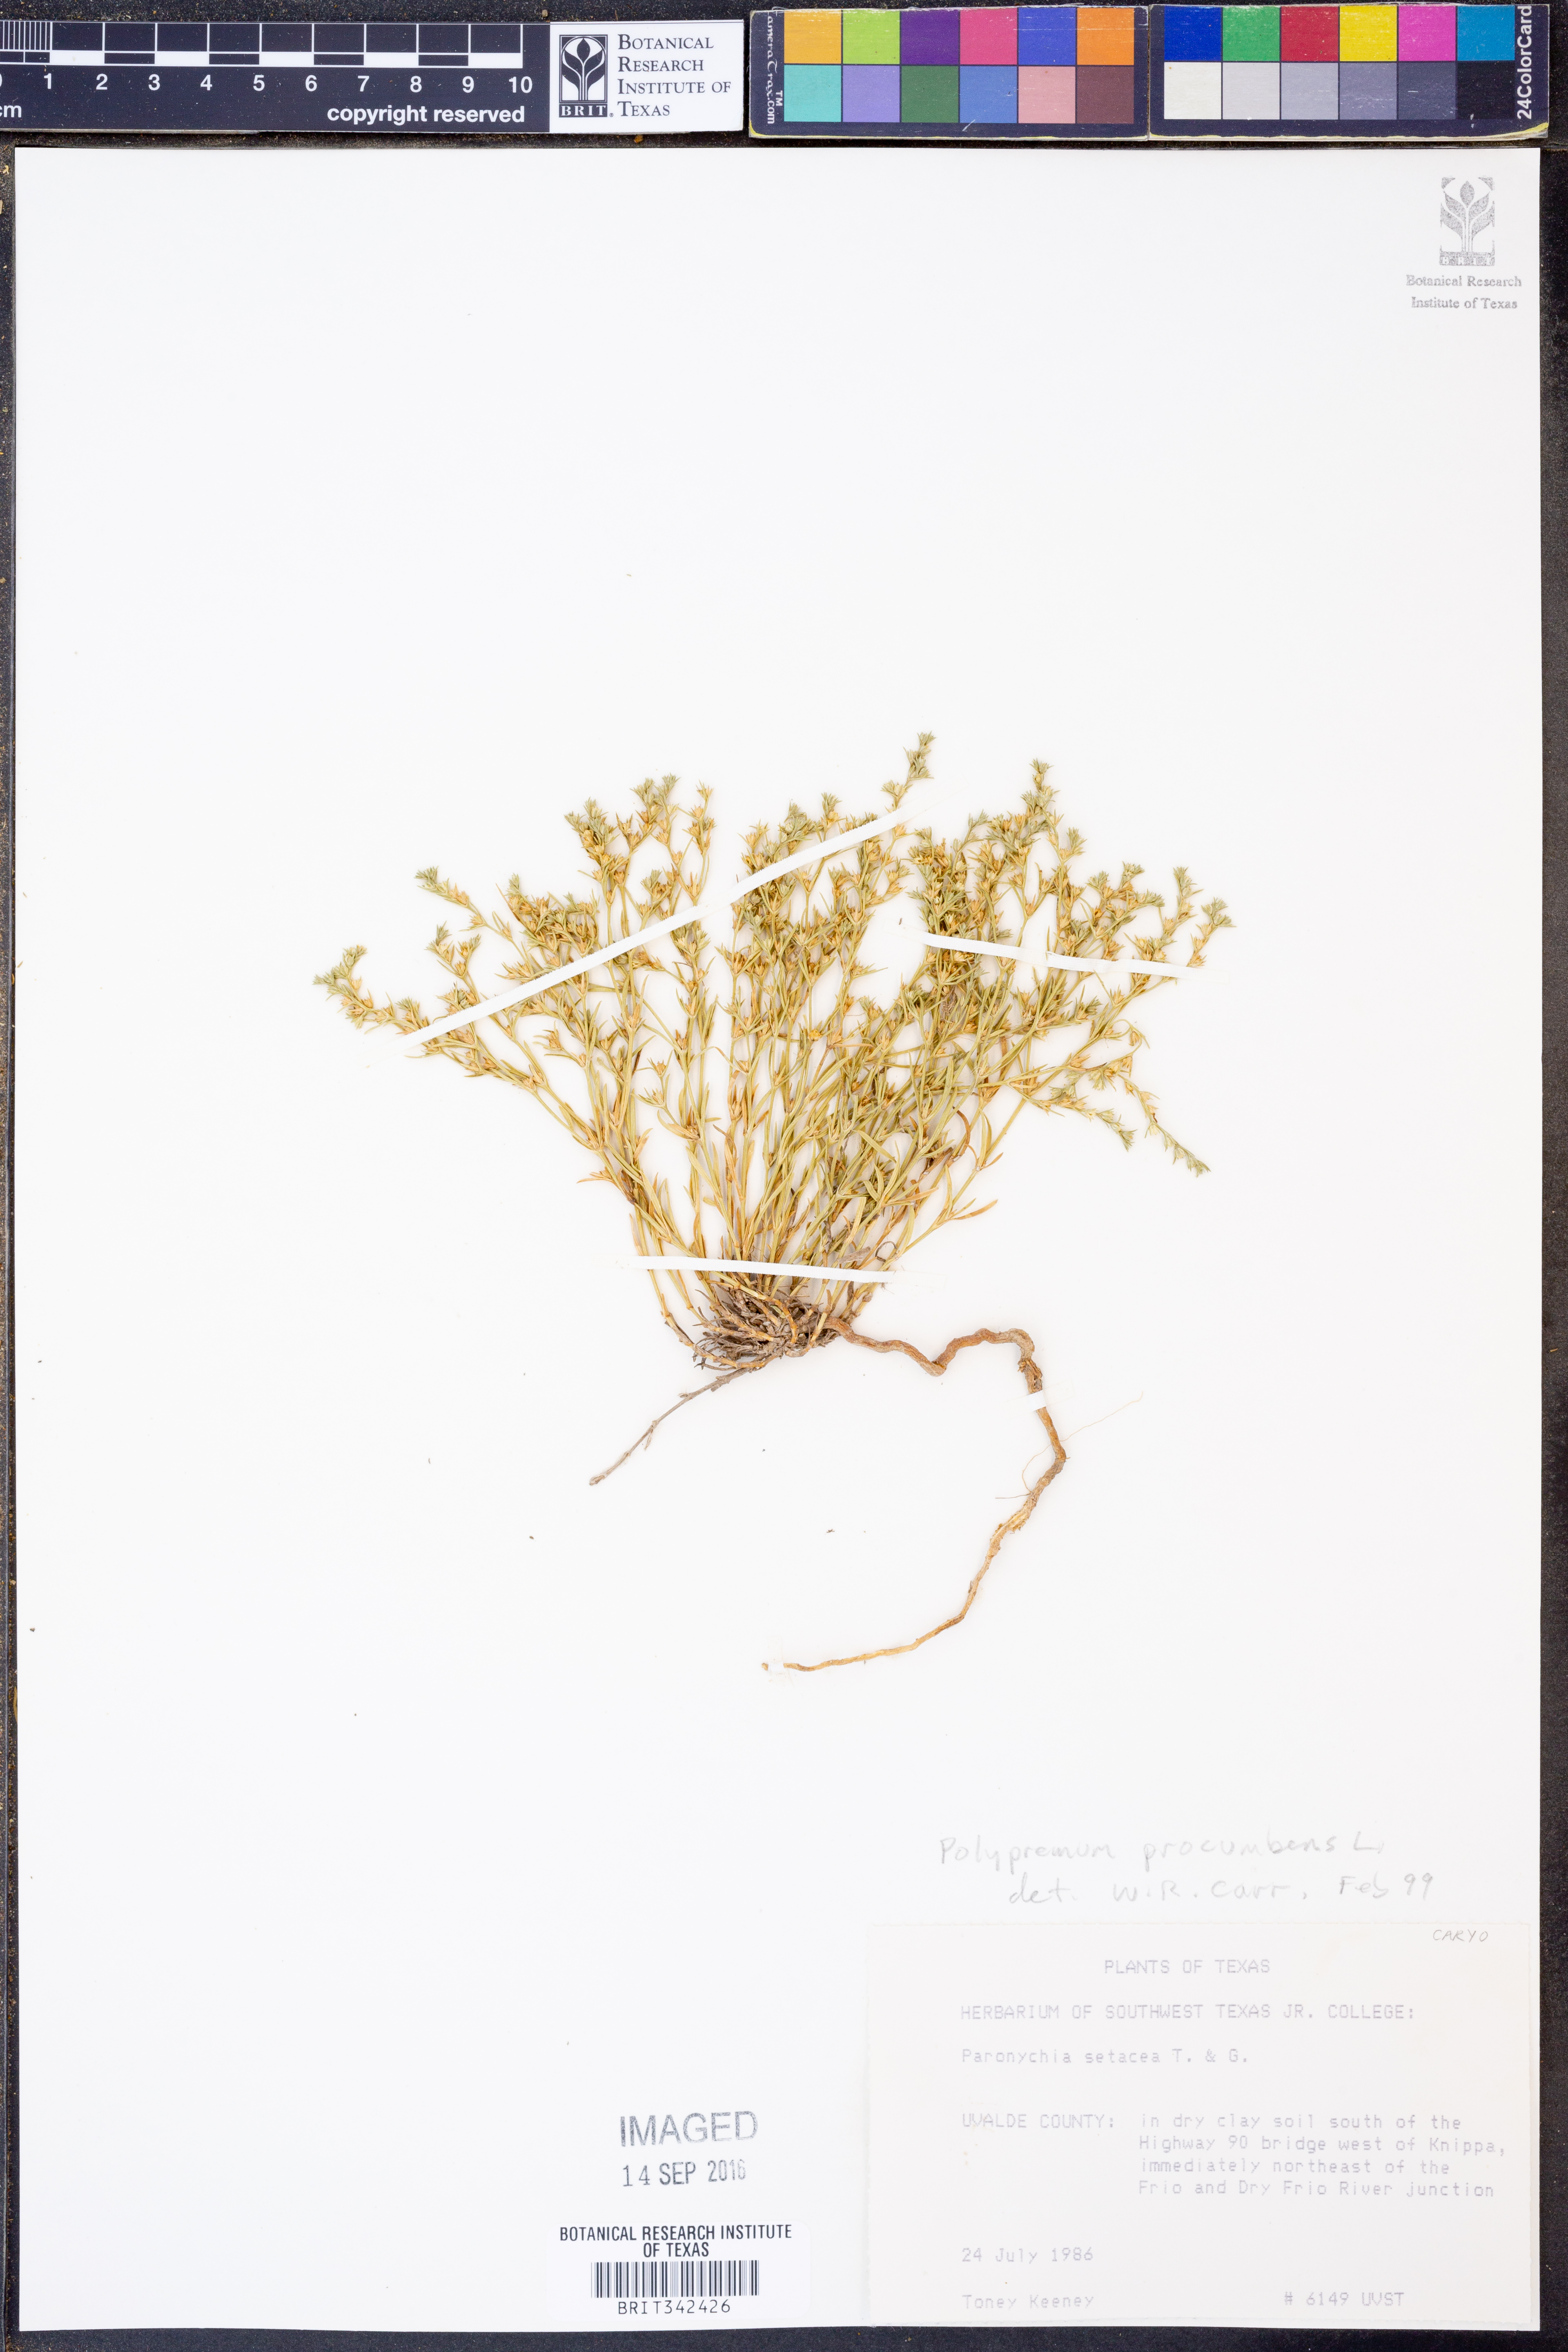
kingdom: Plantae
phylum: Tracheophyta
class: Magnoliopsida
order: Lamiales
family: Tetrachondraceae
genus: Polypremum
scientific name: Polypremum procumbens
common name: Juniper-leaf
